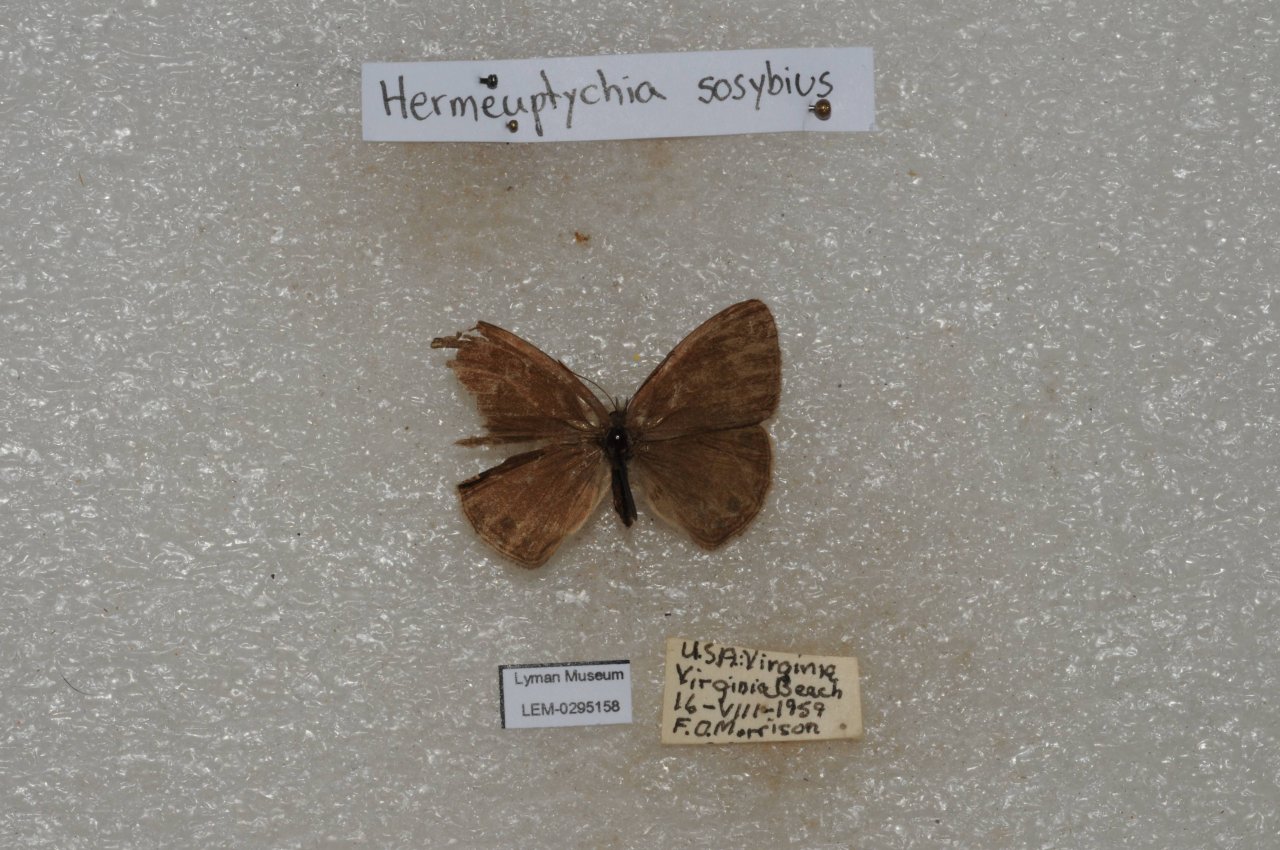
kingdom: Animalia
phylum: Arthropoda
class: Insecta
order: Lepidoptera
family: Nymphalidae
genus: Hermeuptychia
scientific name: Hermeuptychia hermes
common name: Carolina Satyr
